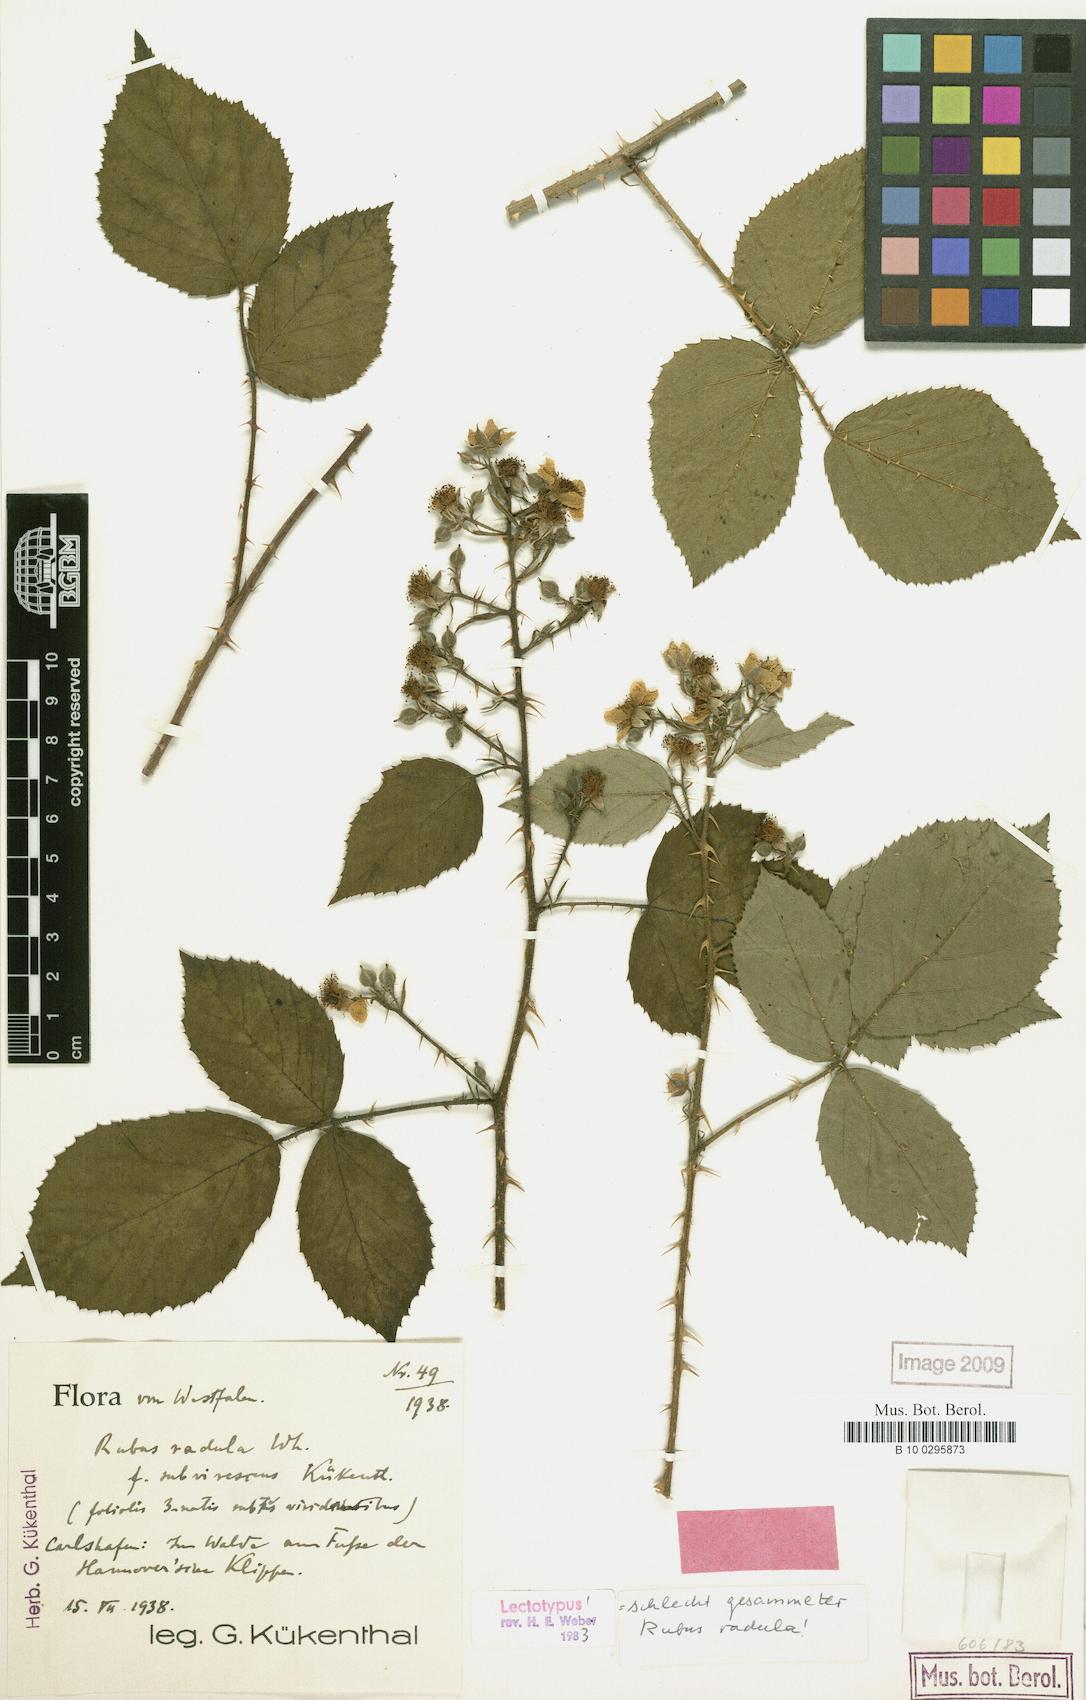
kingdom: Plantae
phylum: Tracheophyta
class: Magnoliopsida
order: Rosales
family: Rosaceae
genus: Rubus
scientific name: Rubus radula
